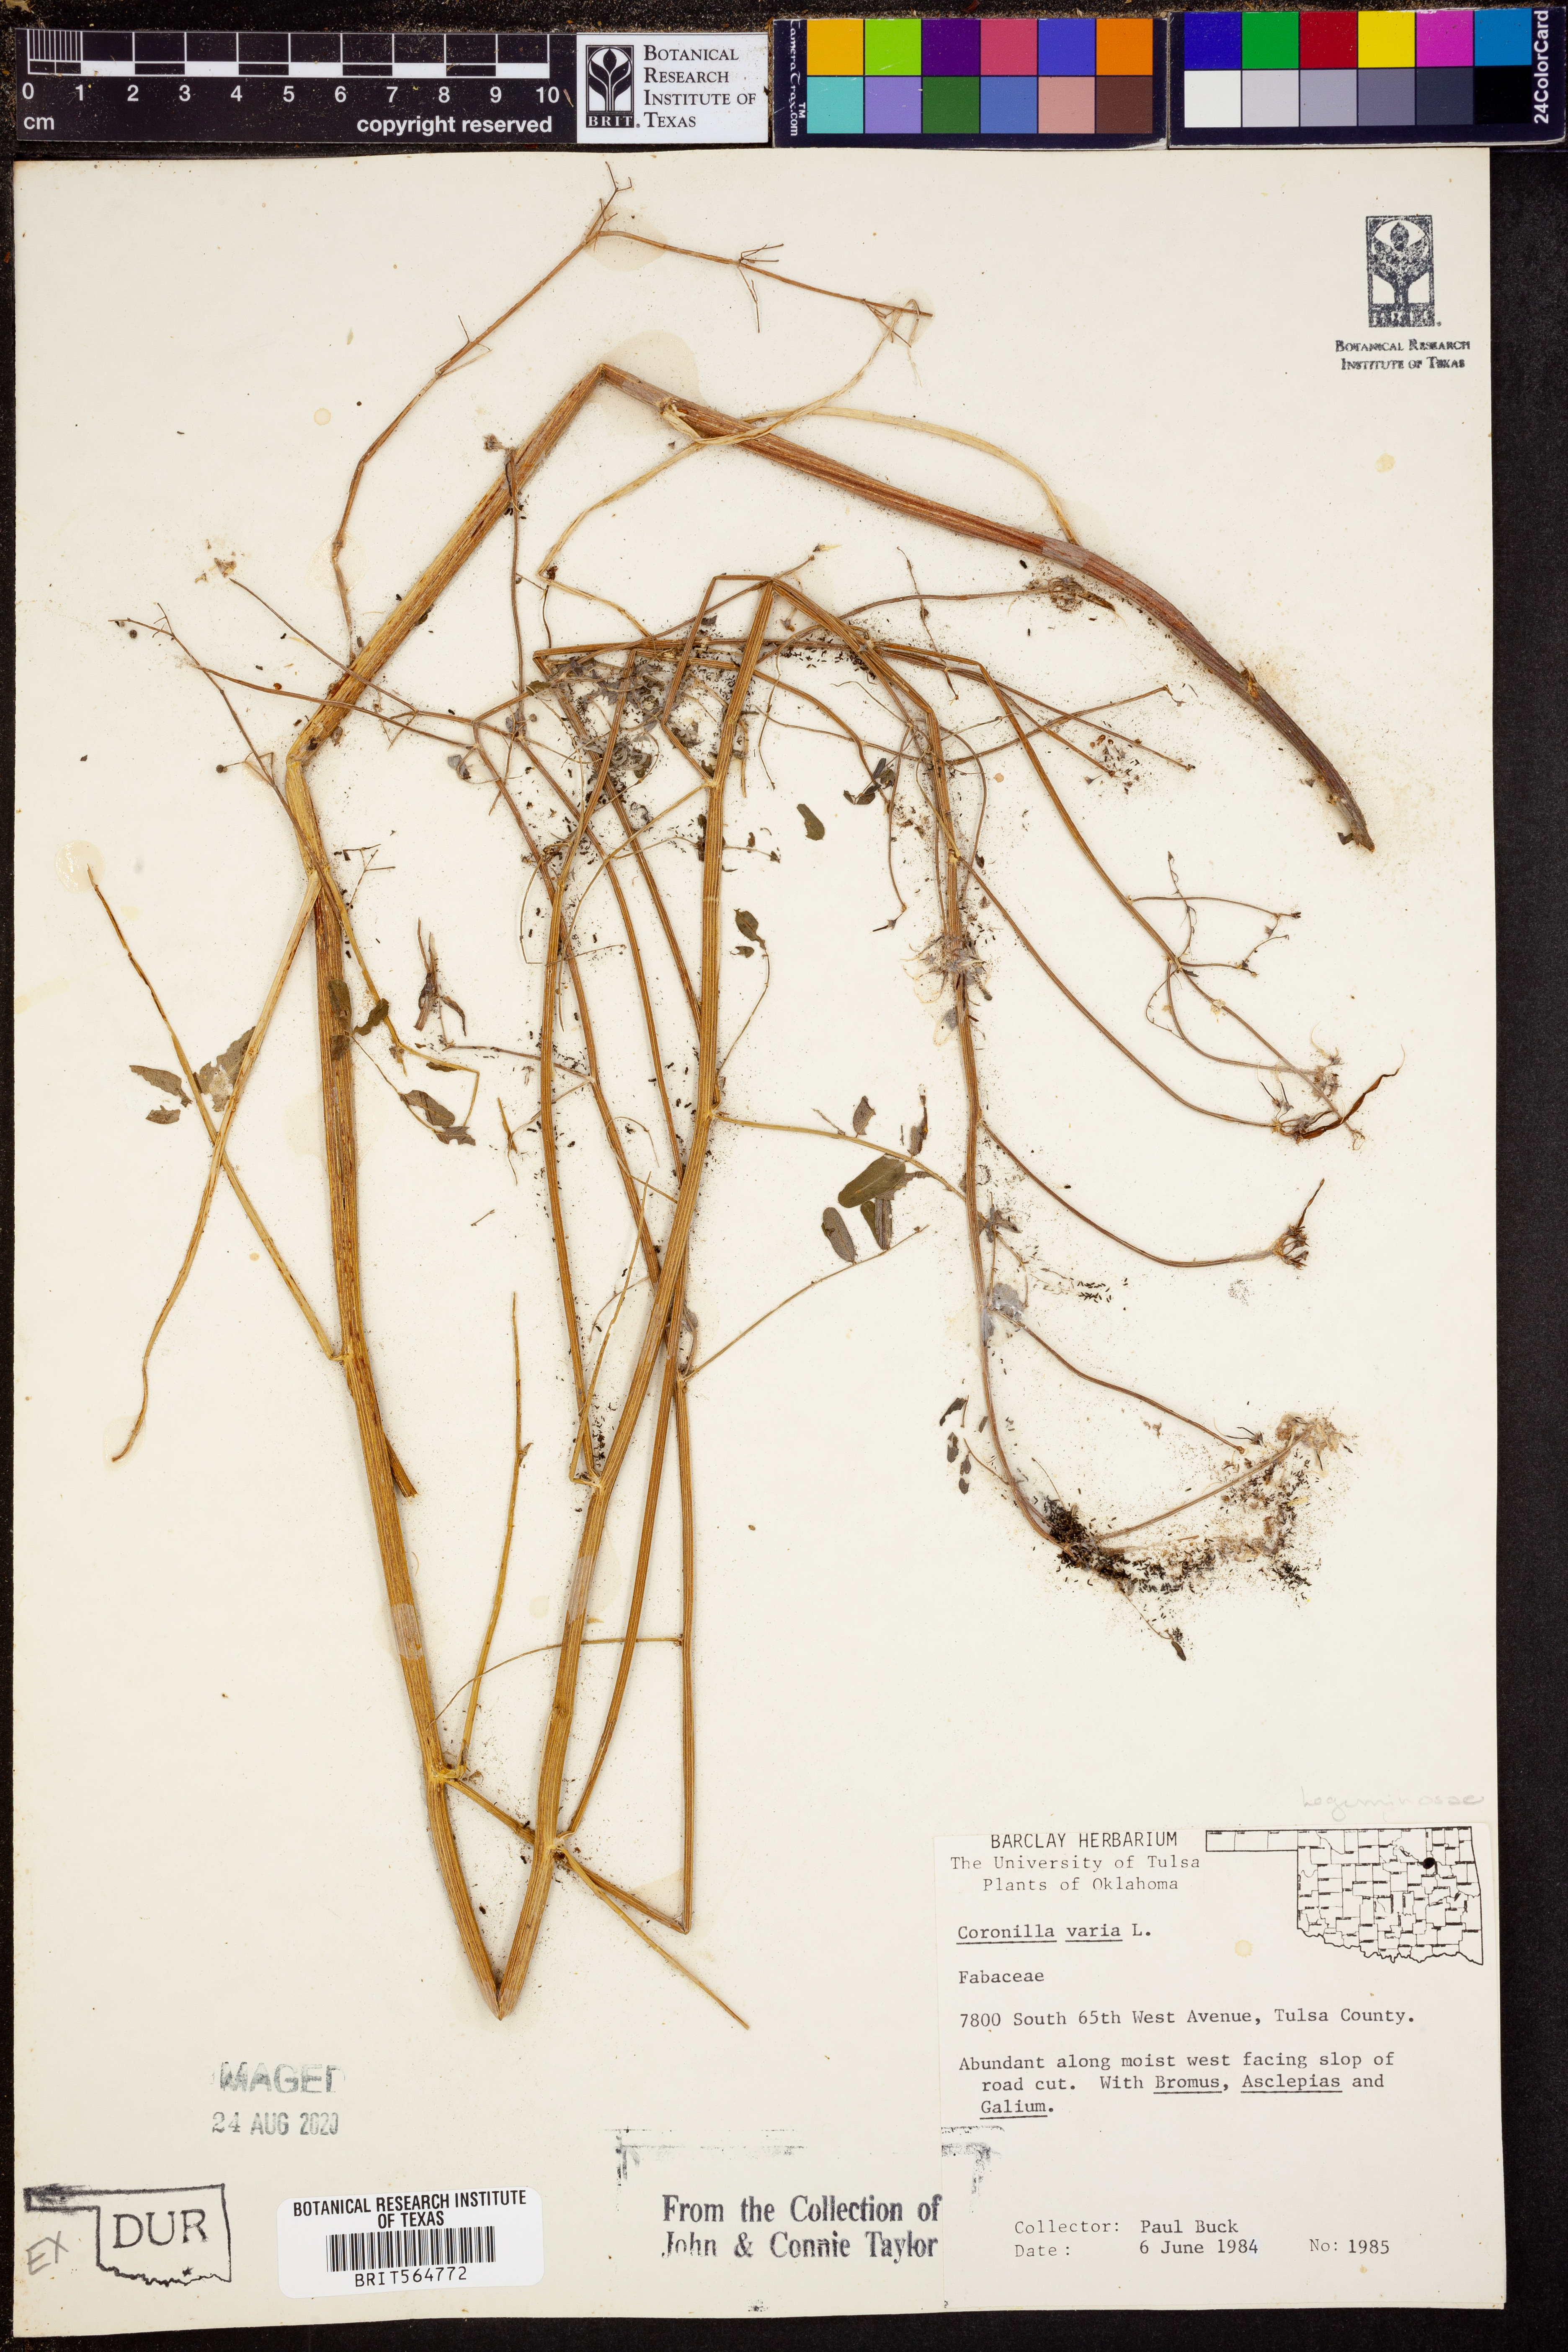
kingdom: Plantae
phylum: Tracheophyta
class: Magnoliopsida
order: Fabales
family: Fabaceae
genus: Coronilla
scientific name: Coronilla varia
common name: Crownvetch
